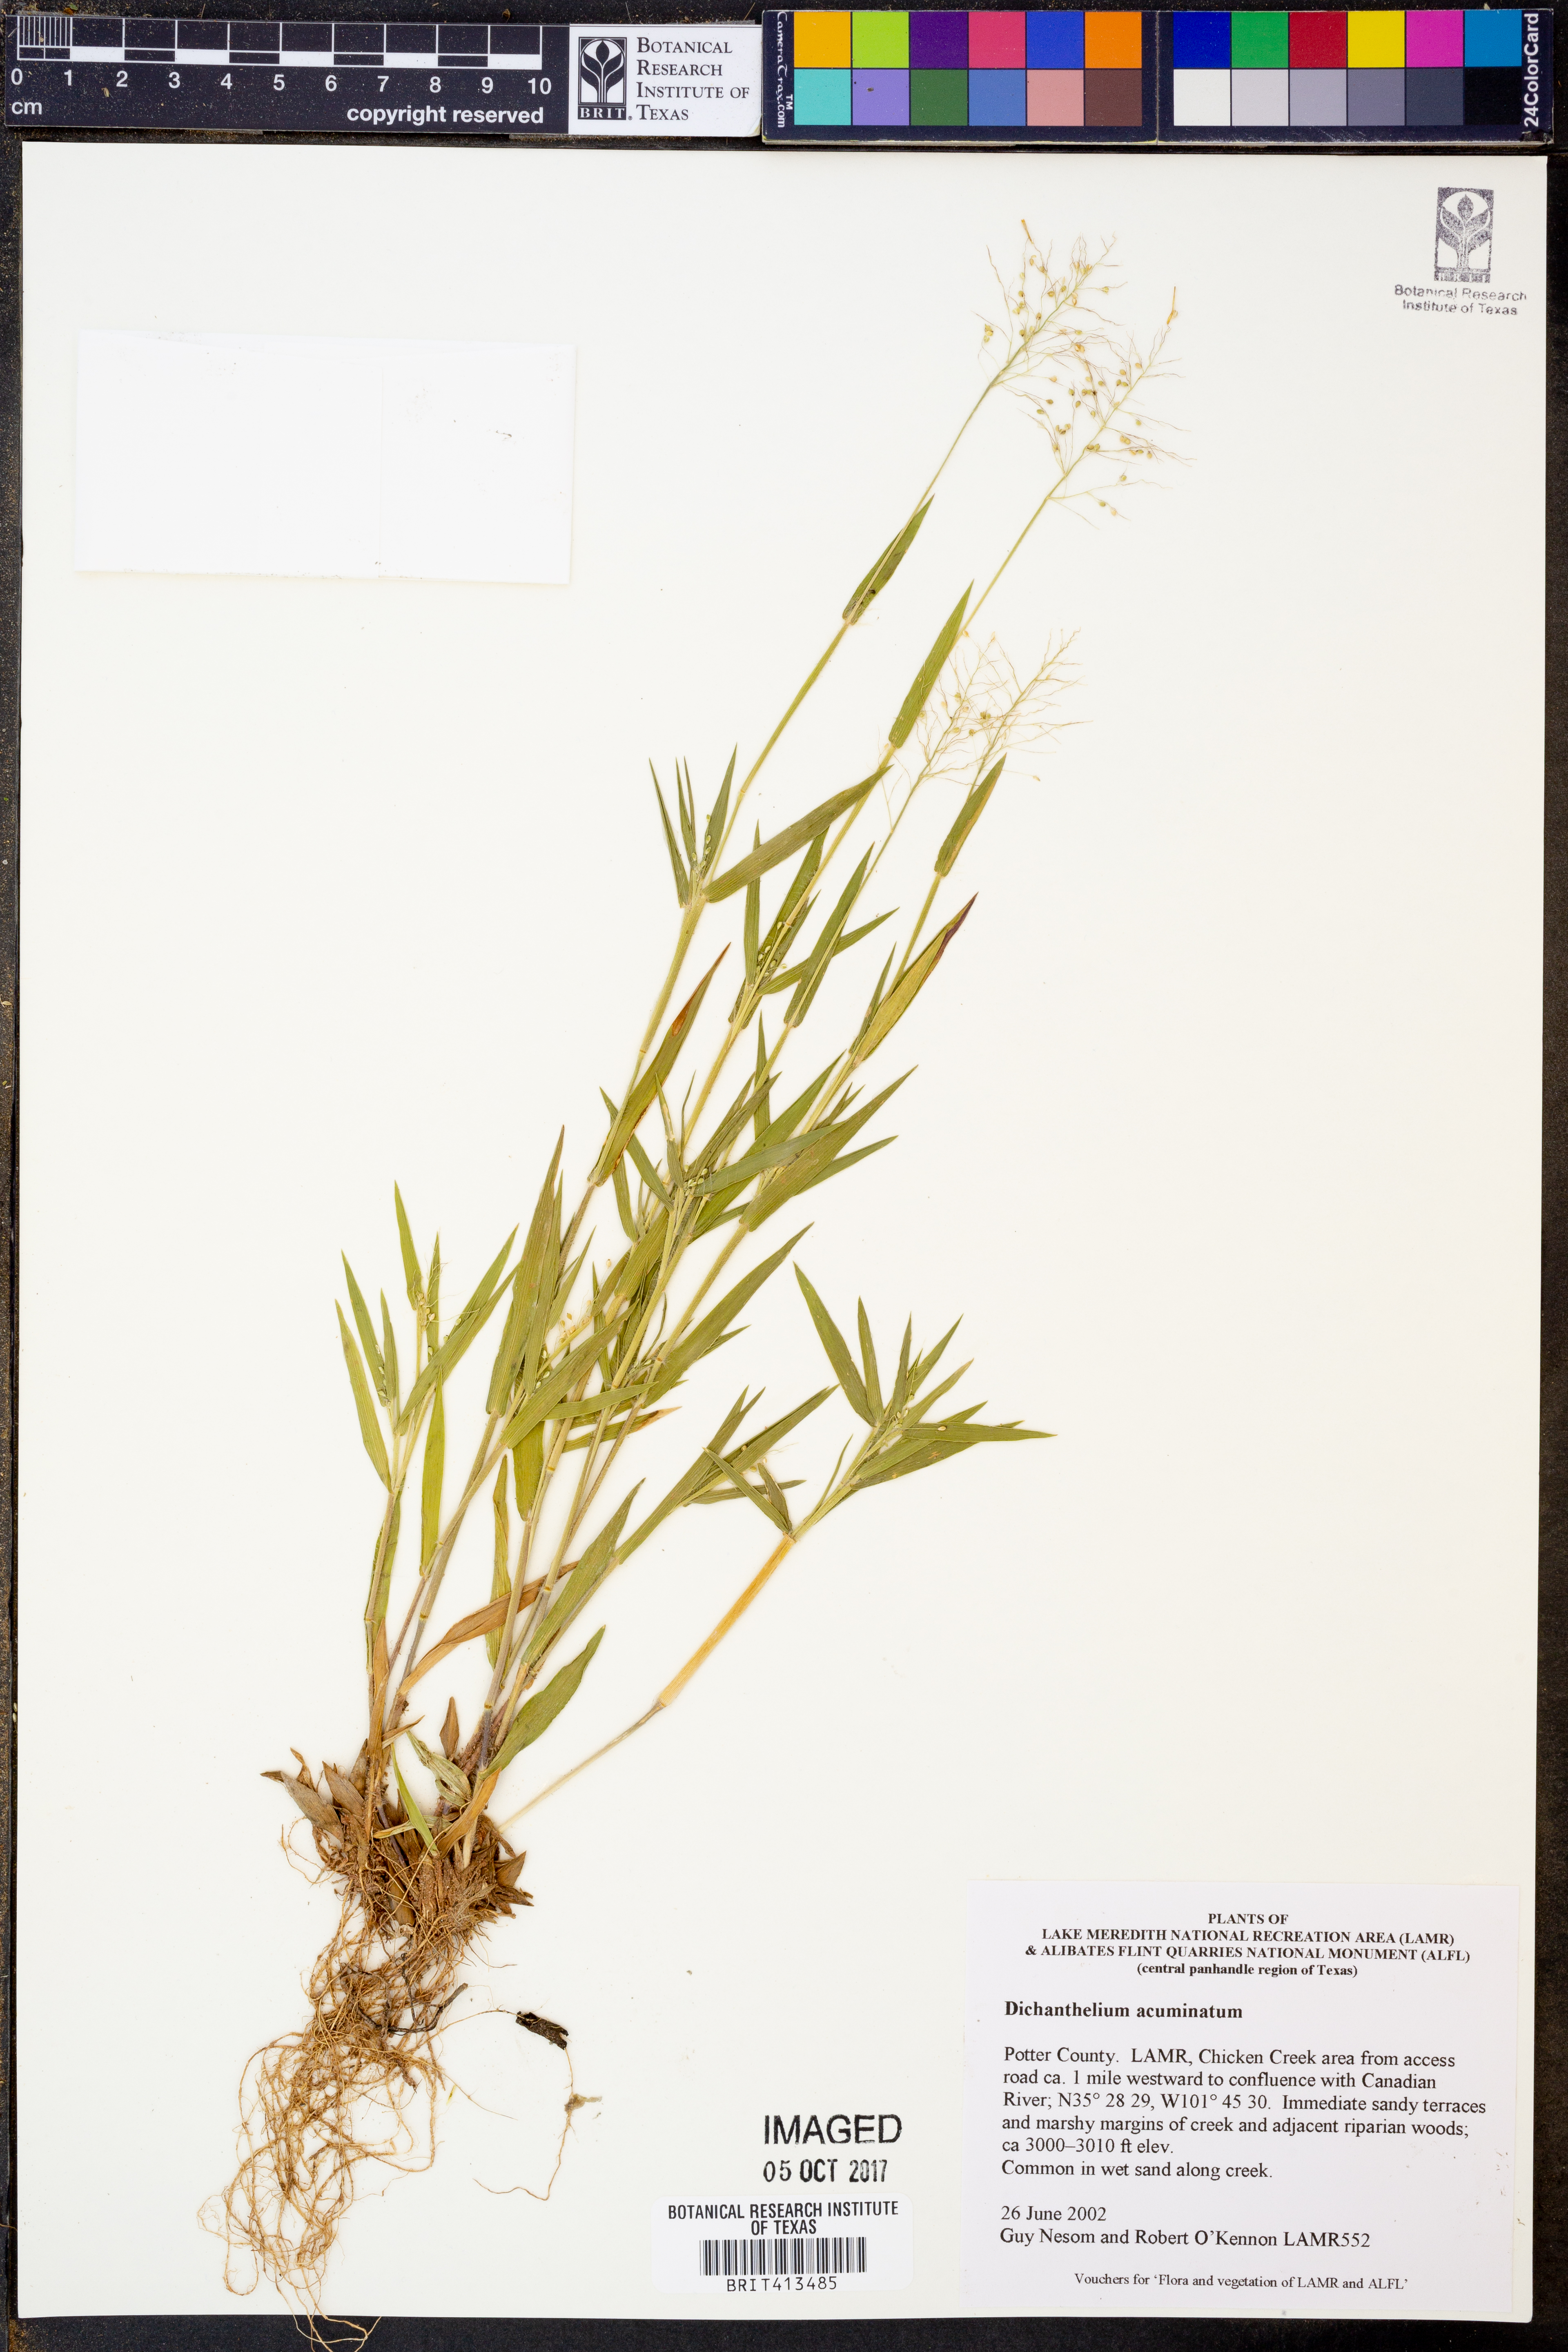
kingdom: Plantae
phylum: Tracheophyta
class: Liliopsida
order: Poales
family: Poaceae
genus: Dichanthelium
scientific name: Dichanthelium acuminatum
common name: Hairy panic grass
